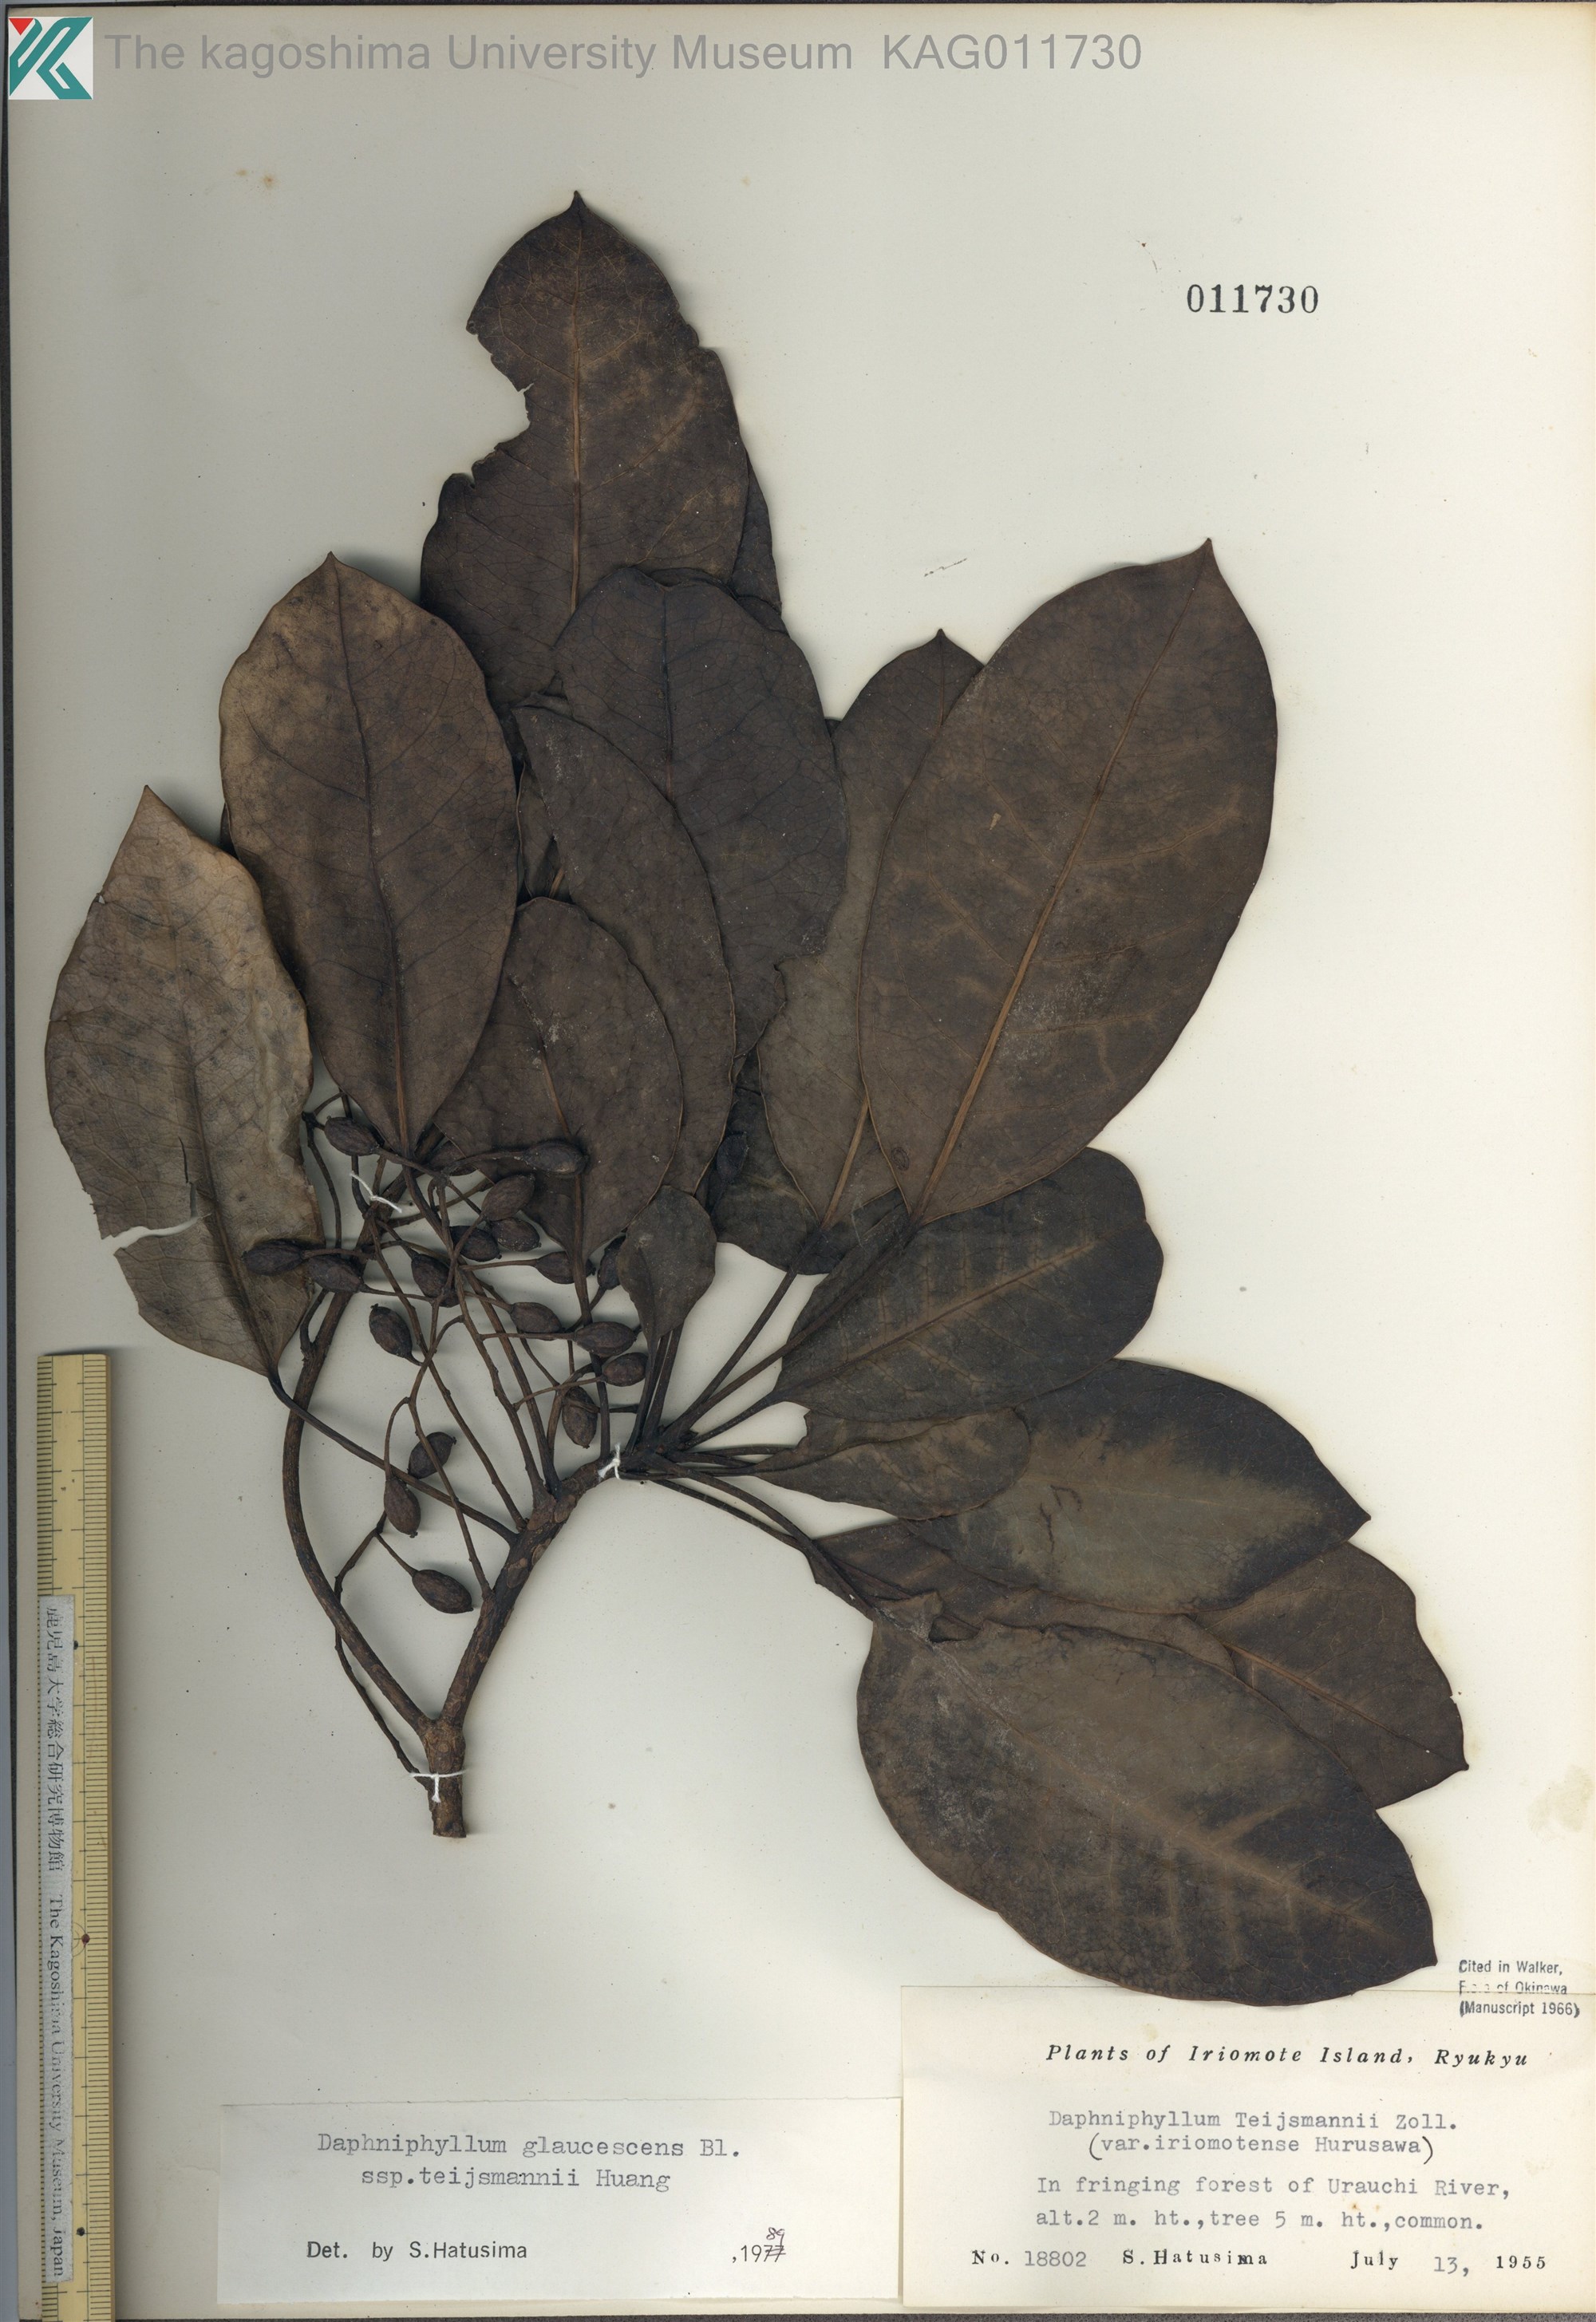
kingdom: Plantae
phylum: Tracheophyta
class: Magnoliopsida
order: Saxifragales
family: Daphniphyllaceae
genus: Daphniphyllum
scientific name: Daphniphyllum teijsmannii
